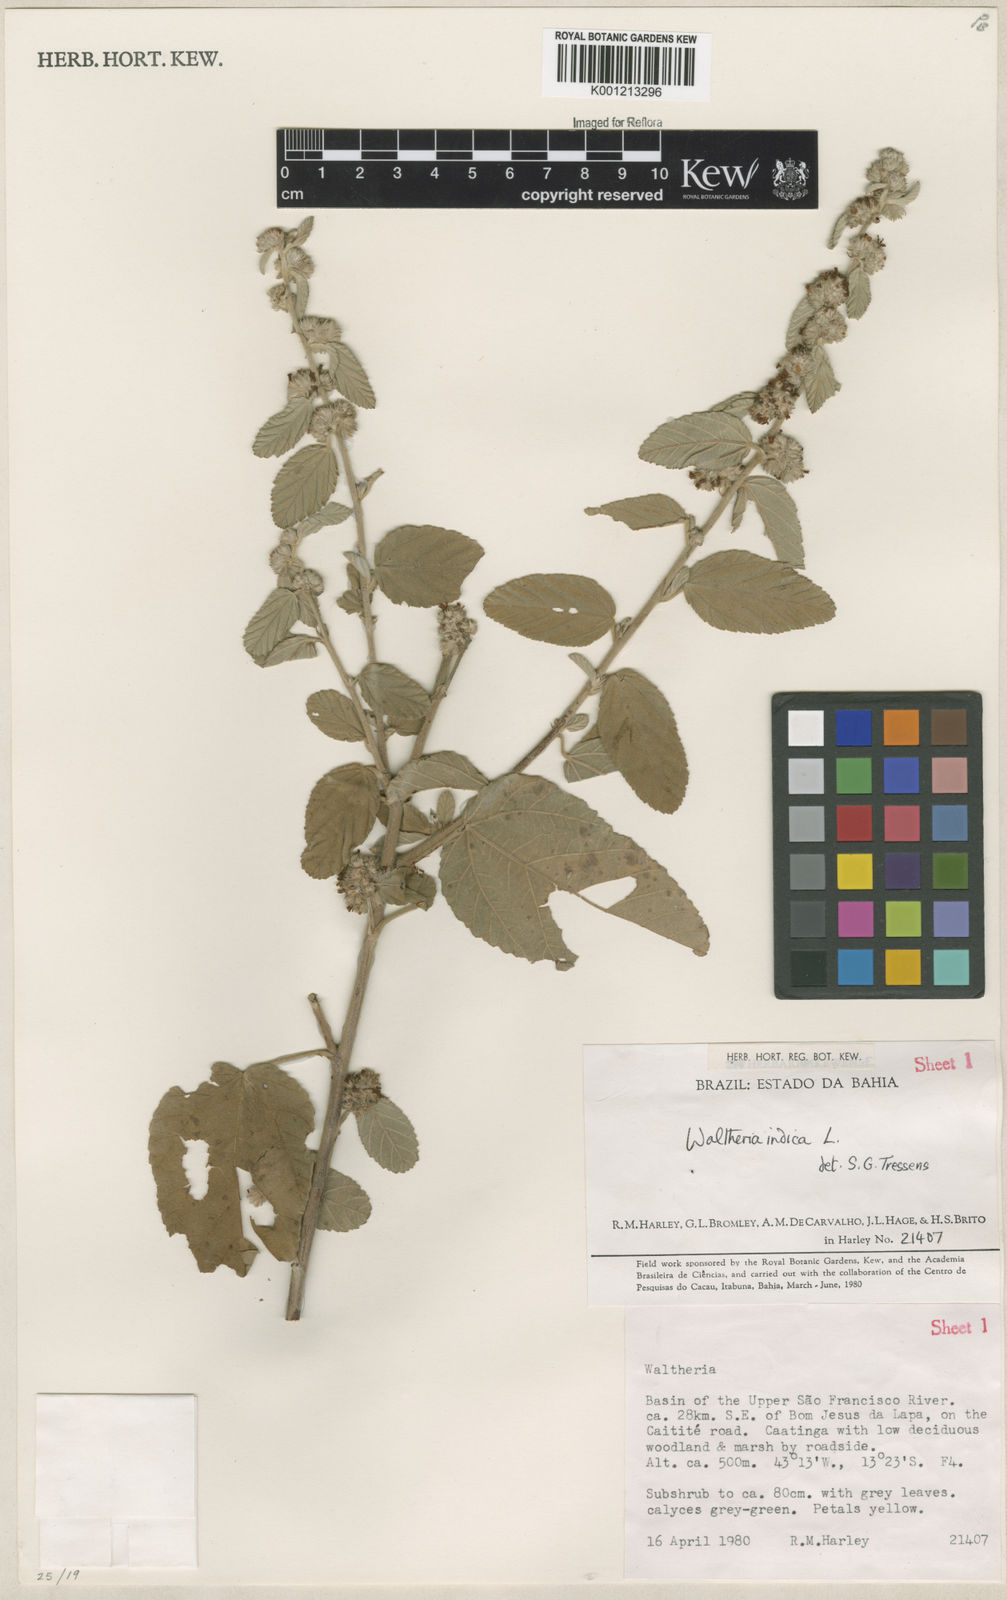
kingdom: Plantae
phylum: Tracheophyta
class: Magnoliopsida
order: Malvales
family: Malvaceae
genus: Waltheria
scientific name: Waltheria indica
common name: Leather-coat
